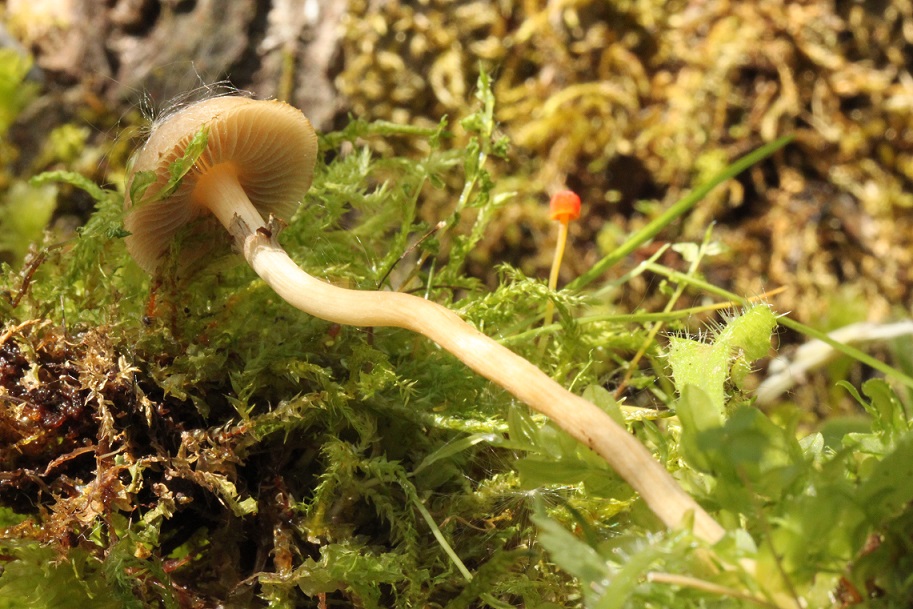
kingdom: Fungi
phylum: Basidiomycota
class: Agaricomycetes
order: Agaricales
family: Strophariaceae
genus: Agrocybe
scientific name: Agrocybe elatella
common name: mose-agerhat
